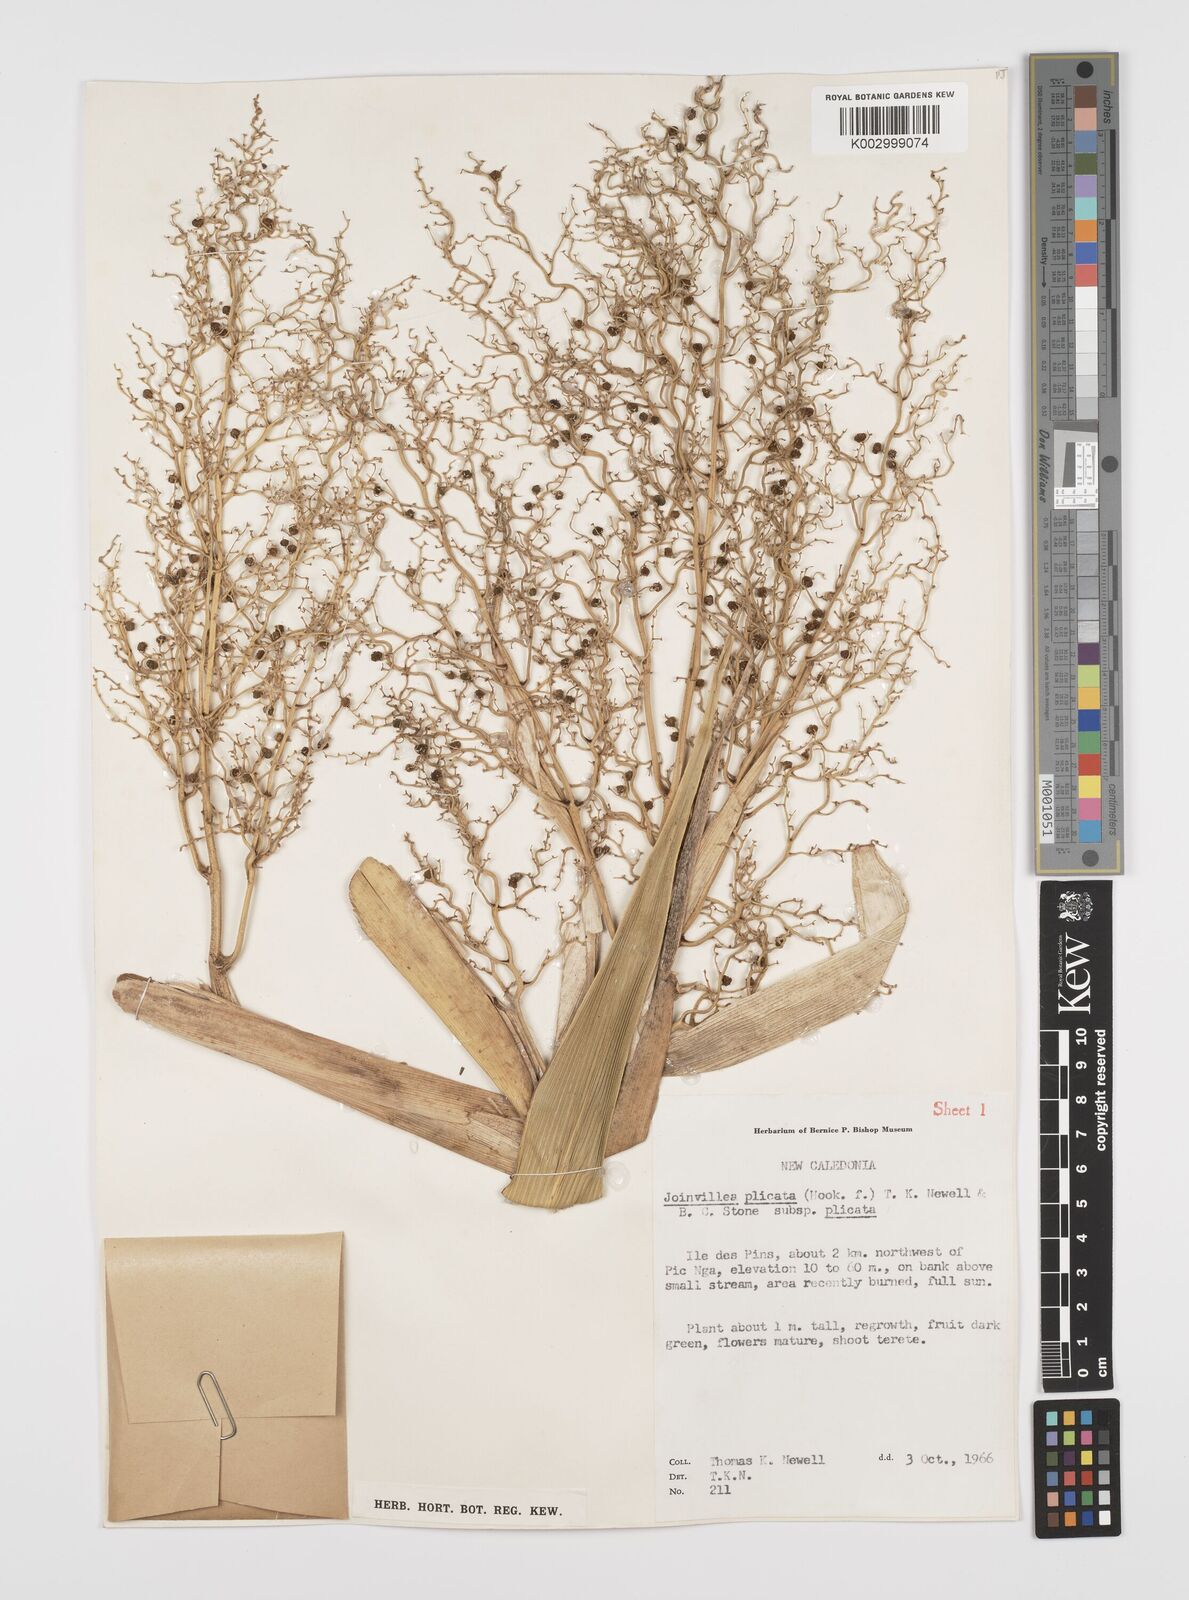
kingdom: Plantae
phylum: Tracheophyta
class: Liliopsida
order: Poales
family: Joinvilleaceae
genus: Joinvillea
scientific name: Joinvillea plicata
